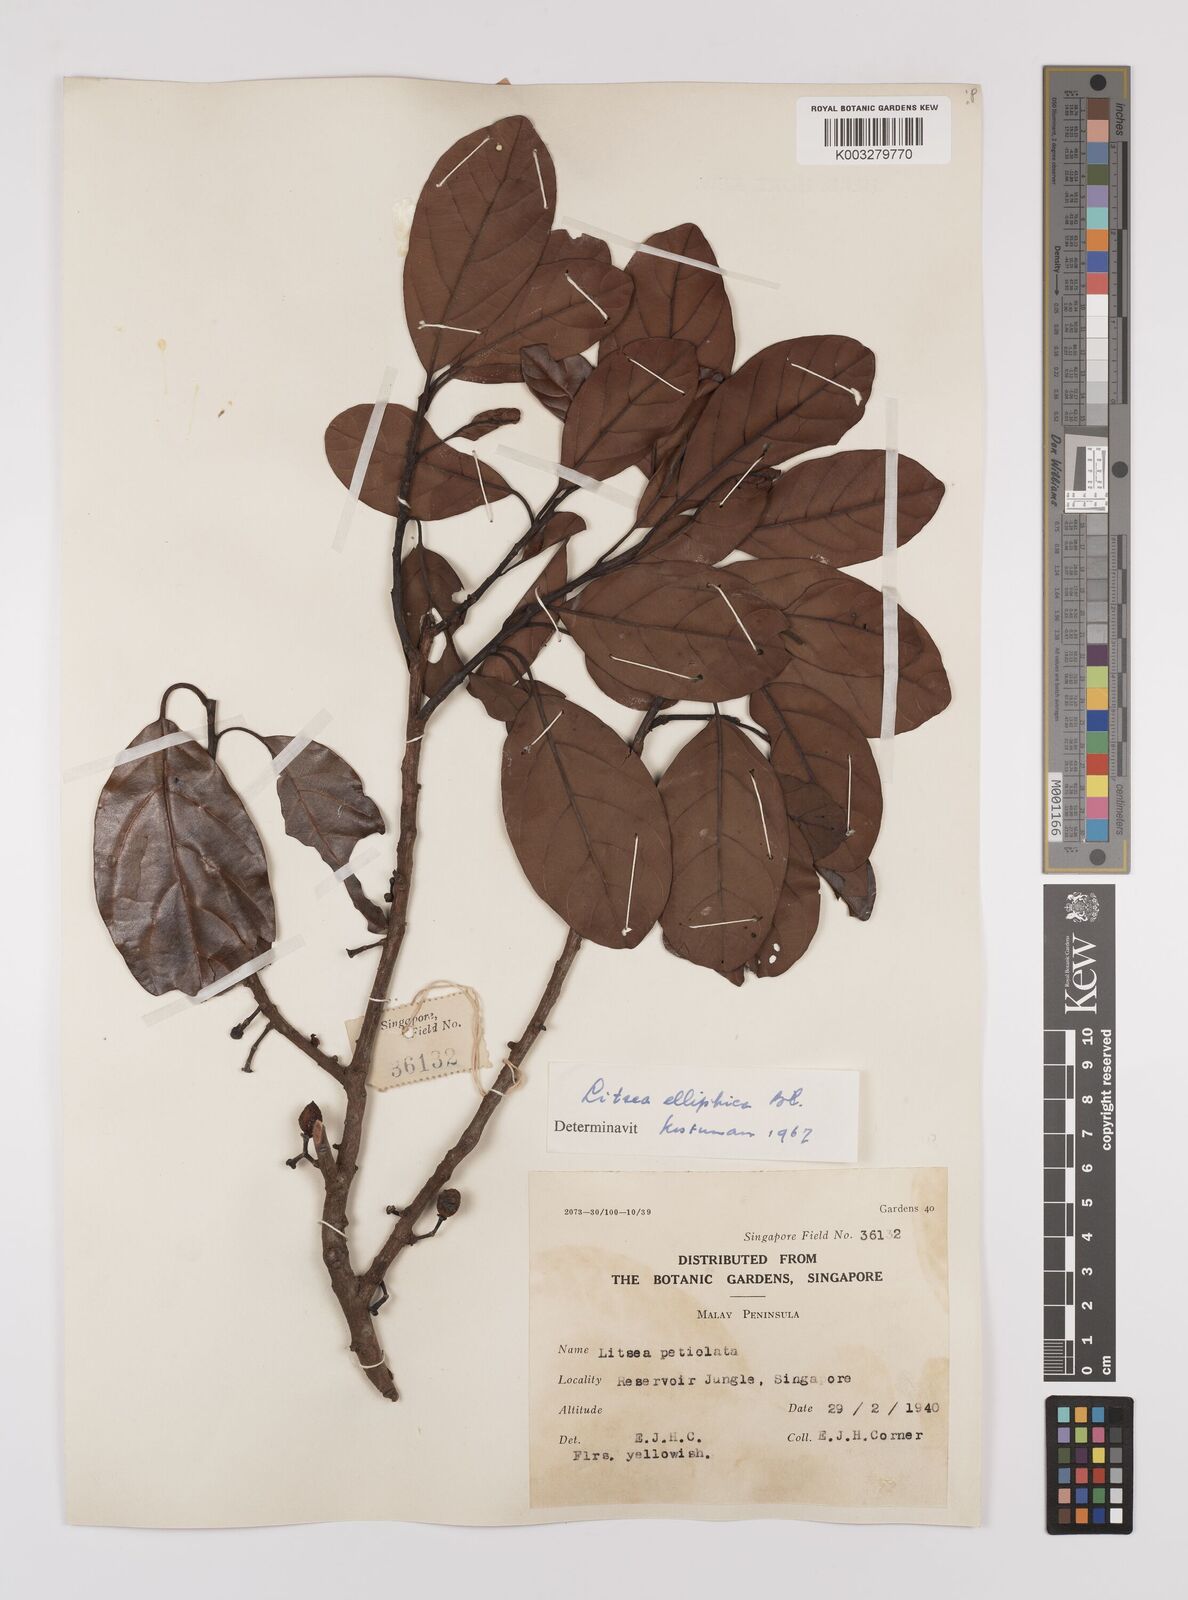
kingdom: Plantae
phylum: Tracheophyta
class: Magnoliopsida
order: Laurales
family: Lauraceae
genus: Litsea
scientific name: Litsea elliptica
